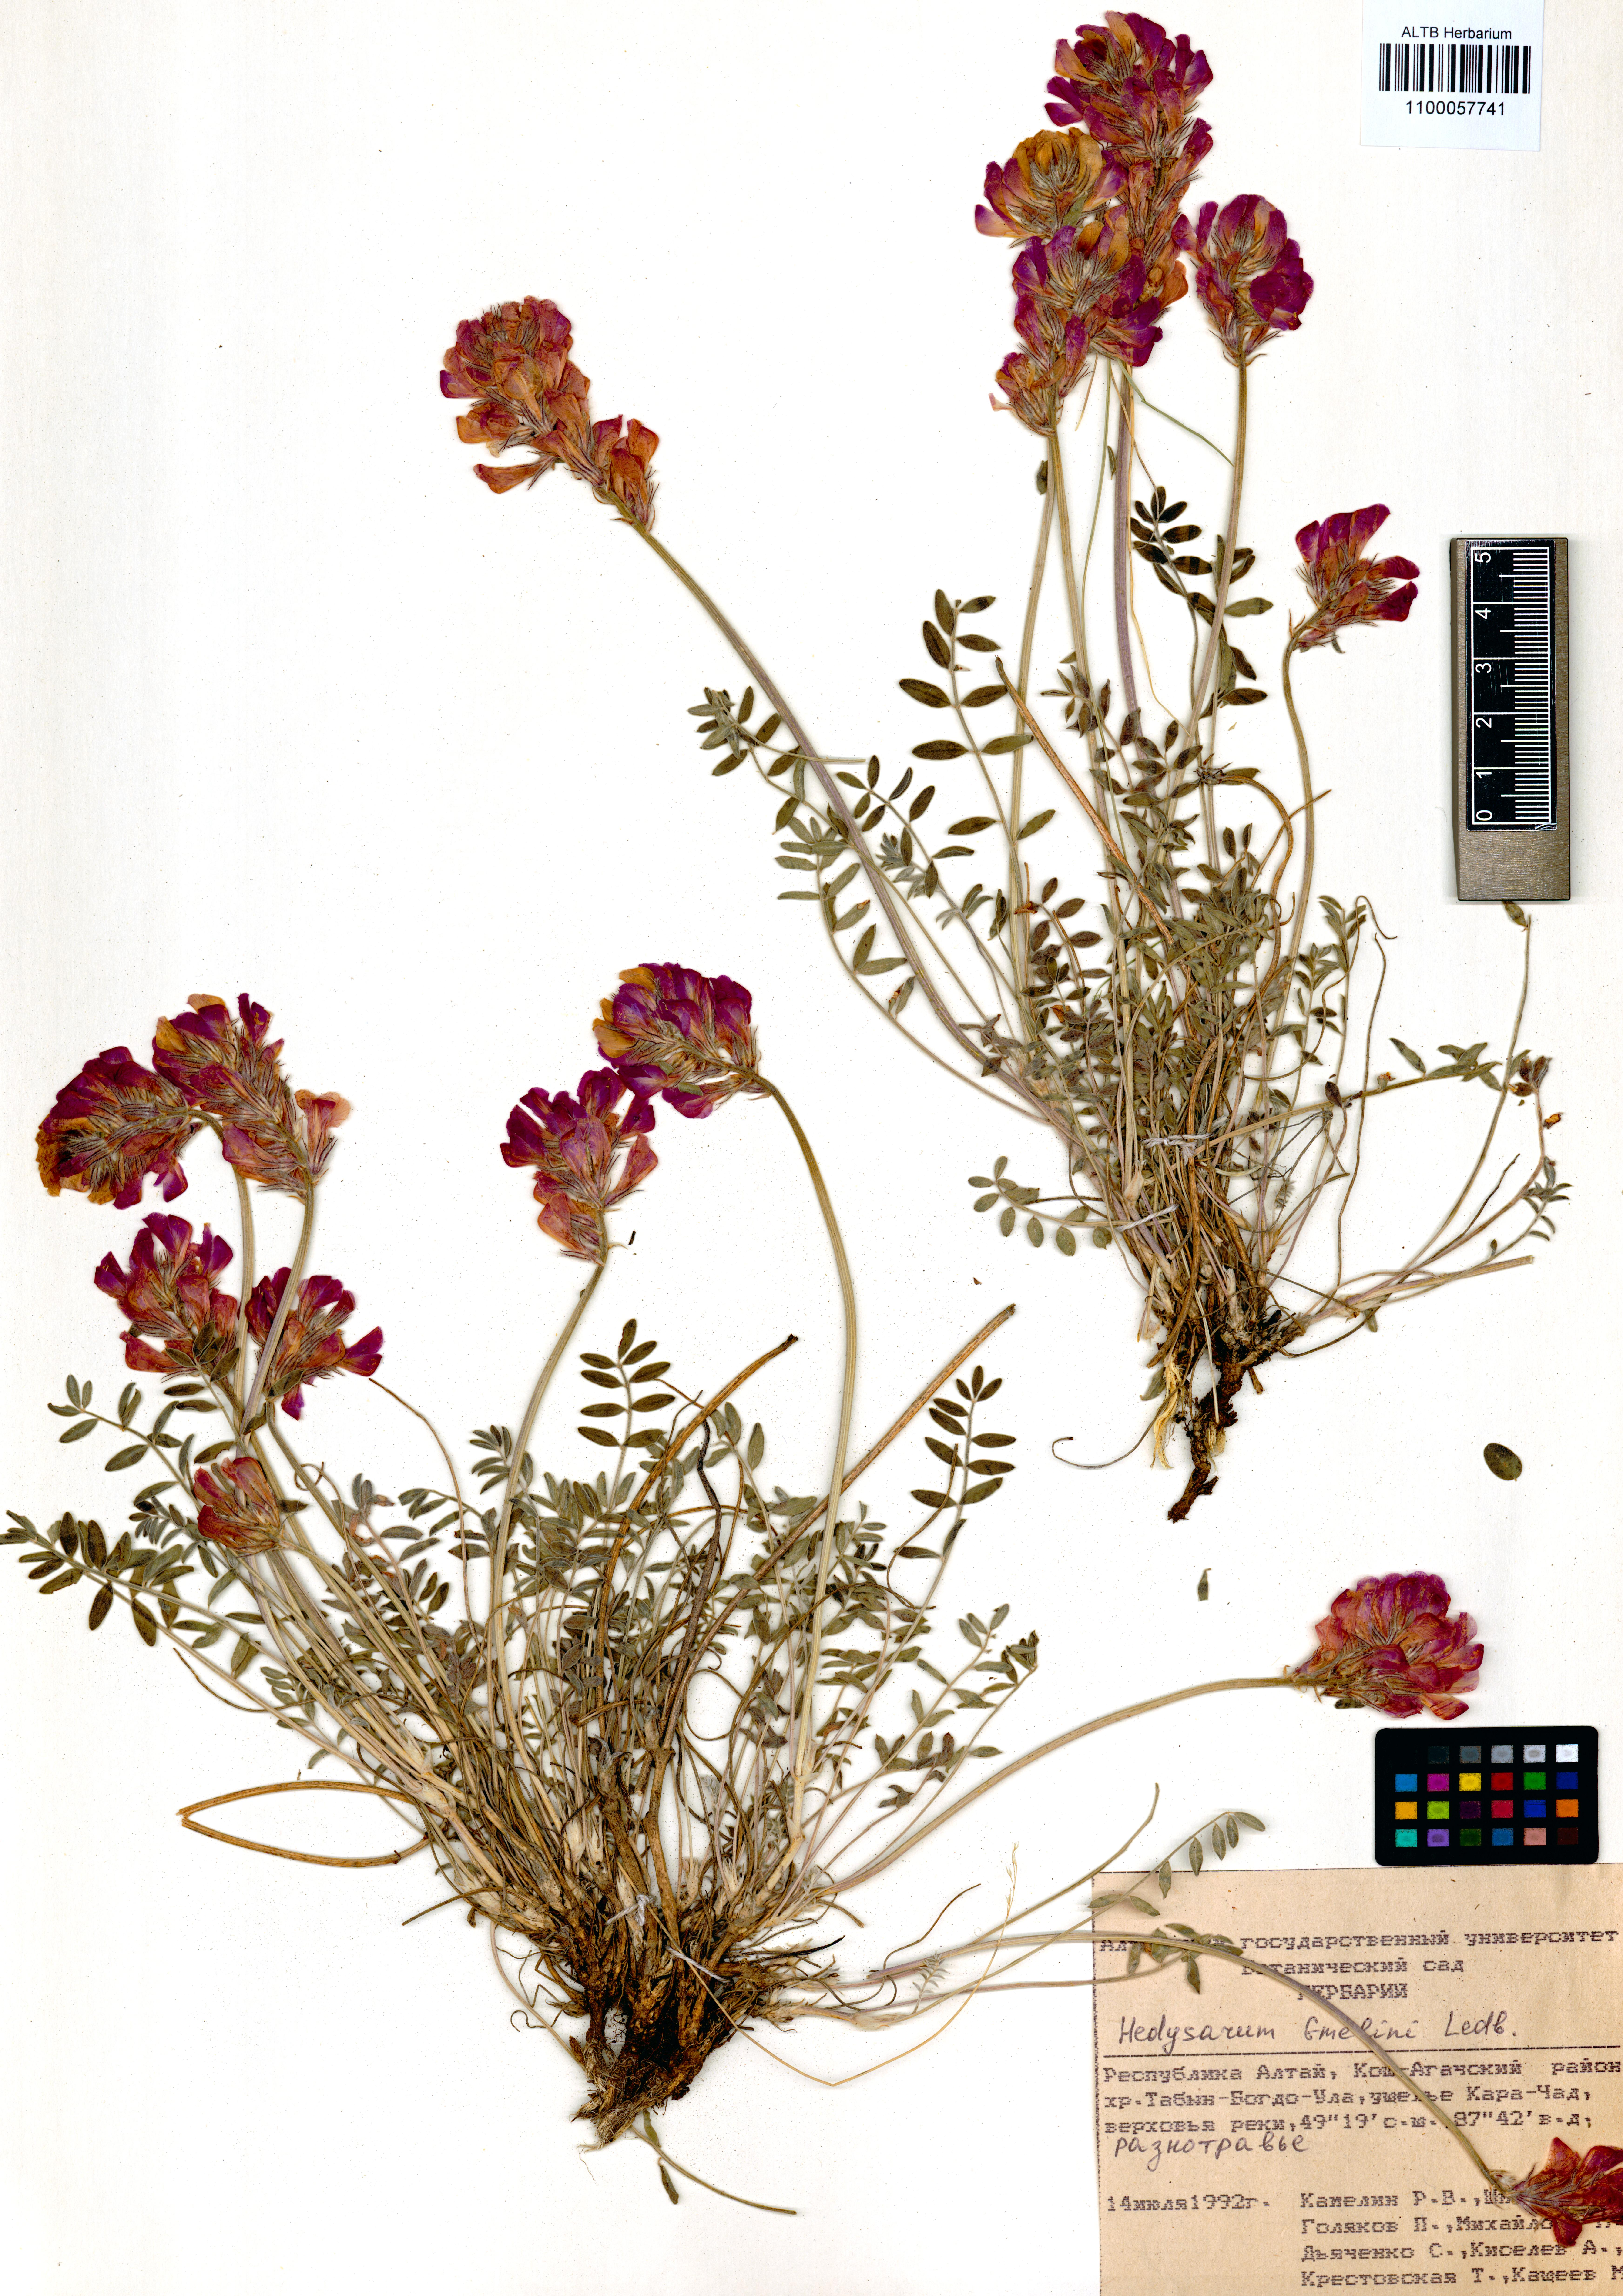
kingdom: Plantae
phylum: Tracheophyta
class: Magnoliopsida
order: Fabales
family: Fabaceae
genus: Hedysarum
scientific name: Hedysarum gmelinii
